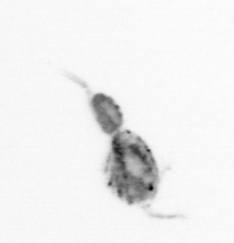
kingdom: Animalia
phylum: Arthropoda
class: Copepoda
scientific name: Copepoda
